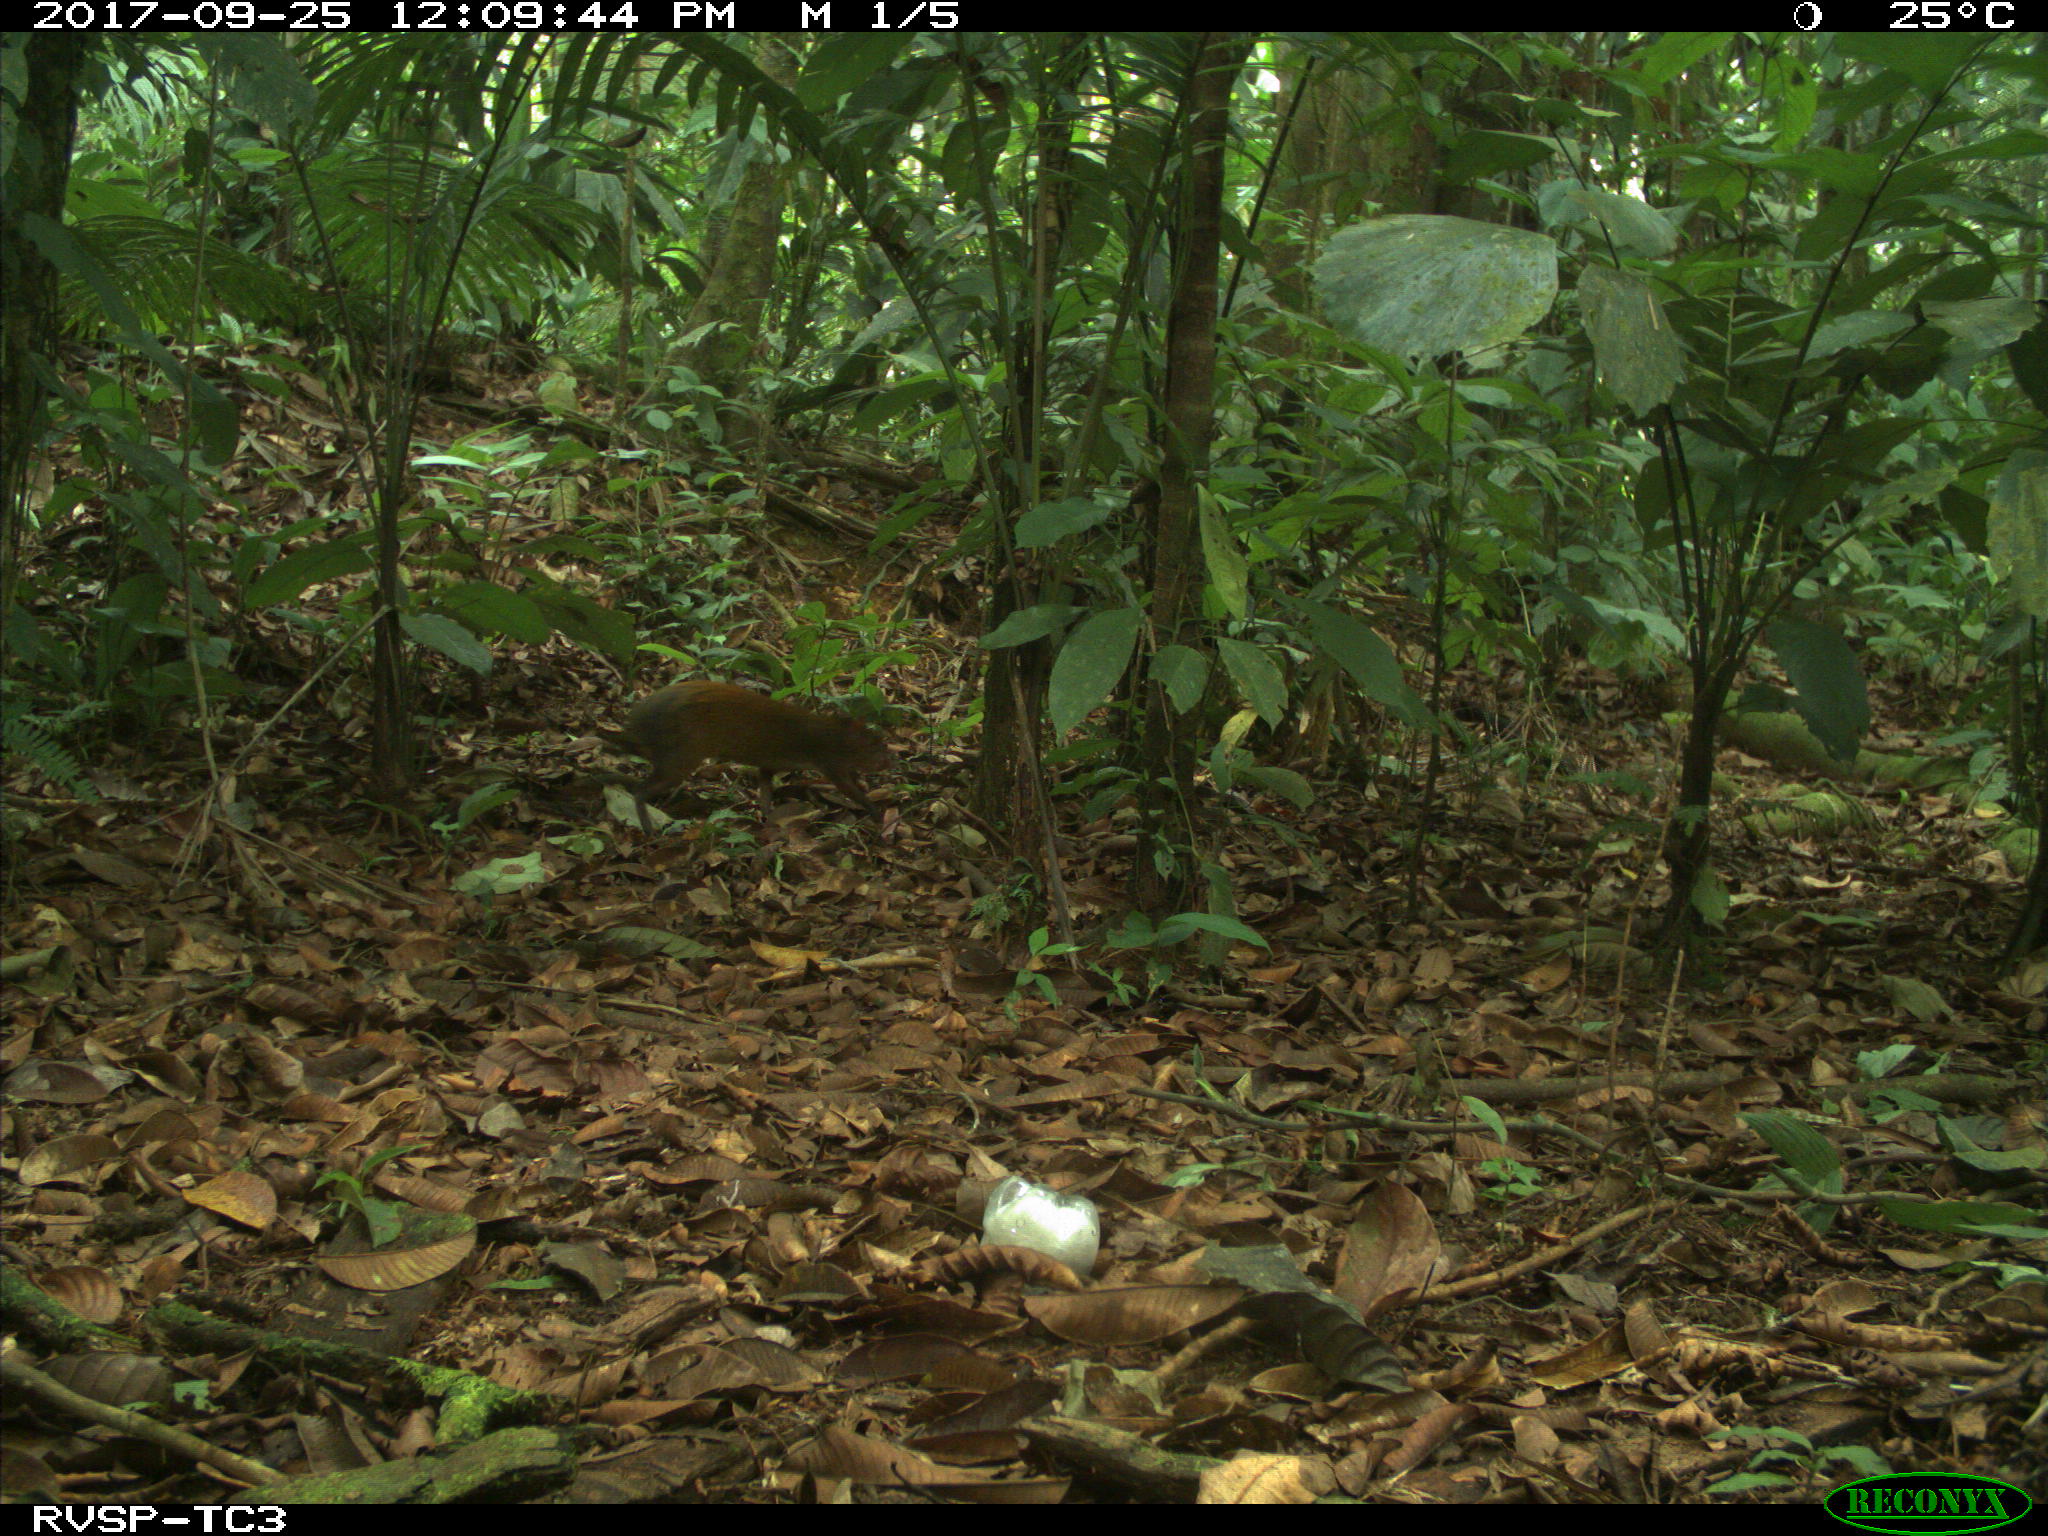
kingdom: Animalia
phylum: Chordata
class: Mammalia
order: Rodentia
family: Dasyproctidae
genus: Dasyprocta
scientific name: Dasyprocta punctata
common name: Central american agouti
